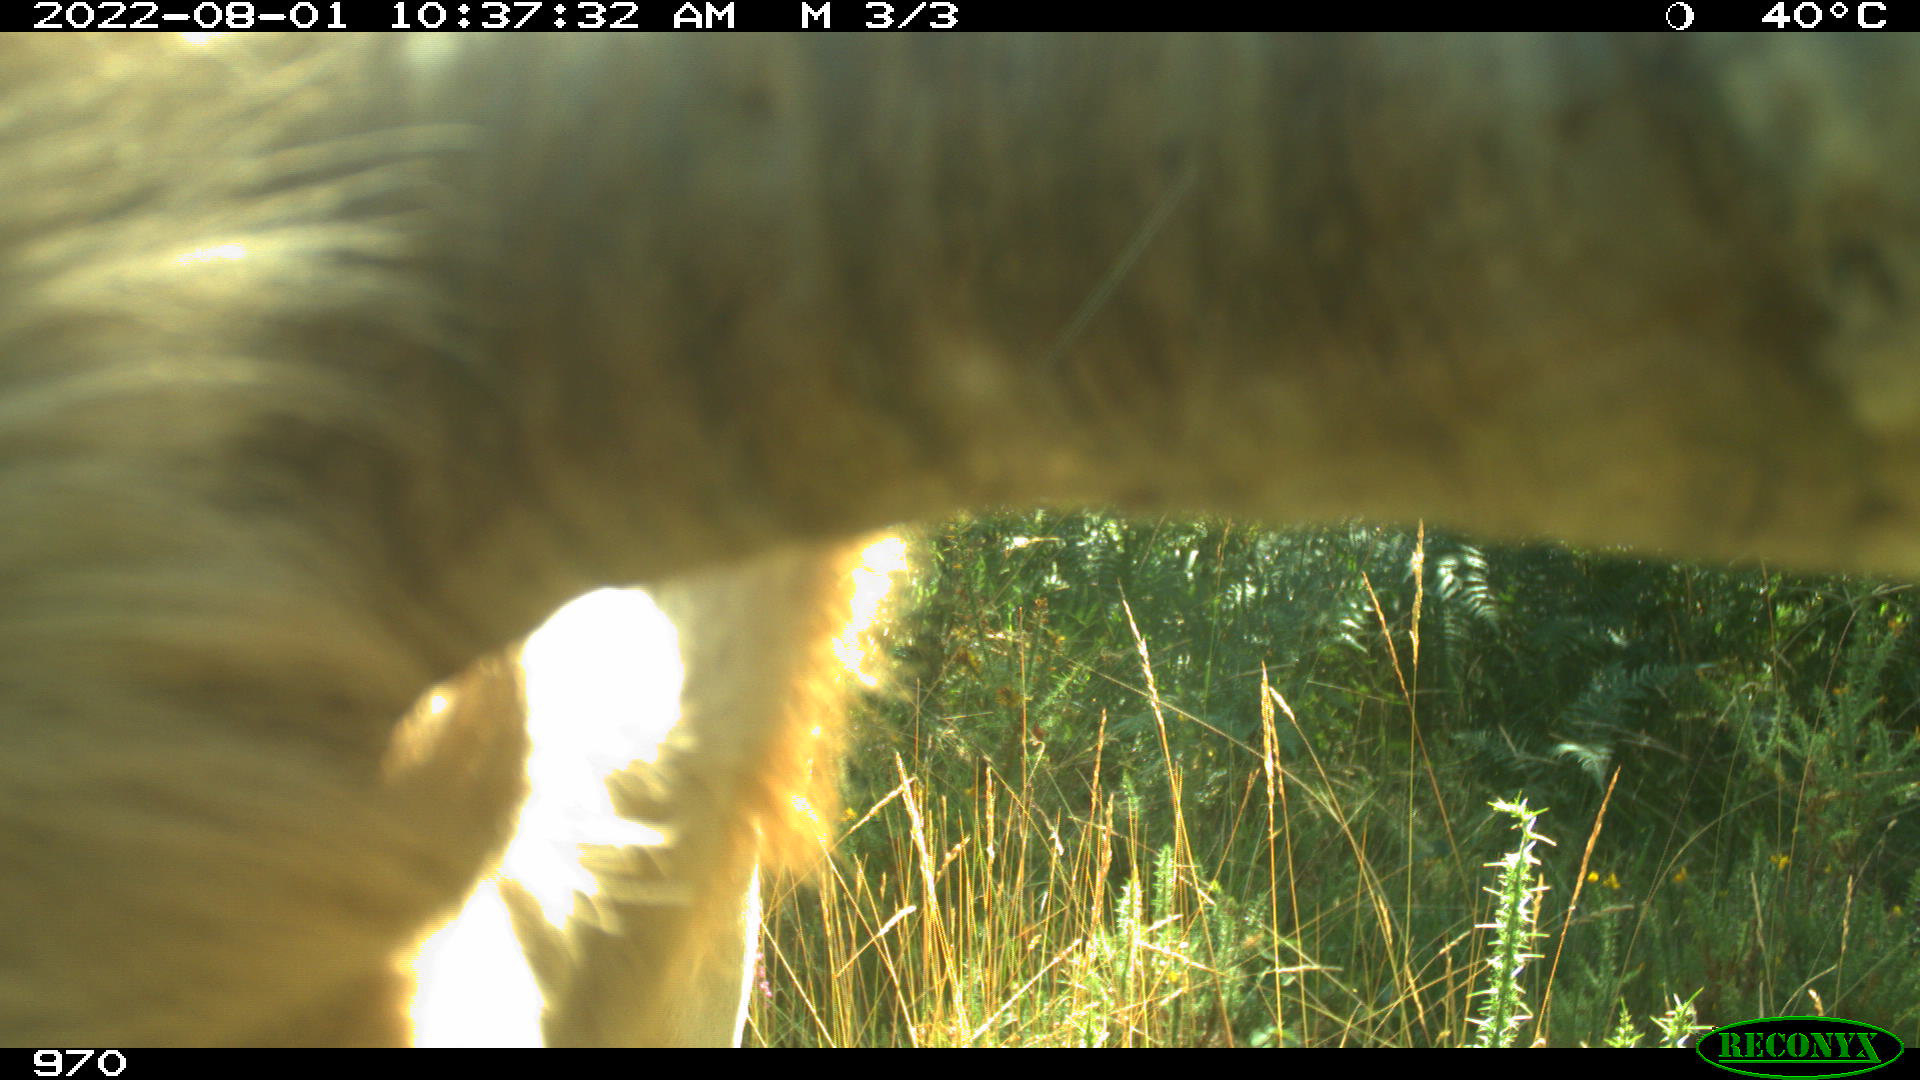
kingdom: Animalia
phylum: Chordata
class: Mammalia
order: Artiodactyla
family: Bovidae
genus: Bos
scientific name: Bos taurus
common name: Domesticated cattle
